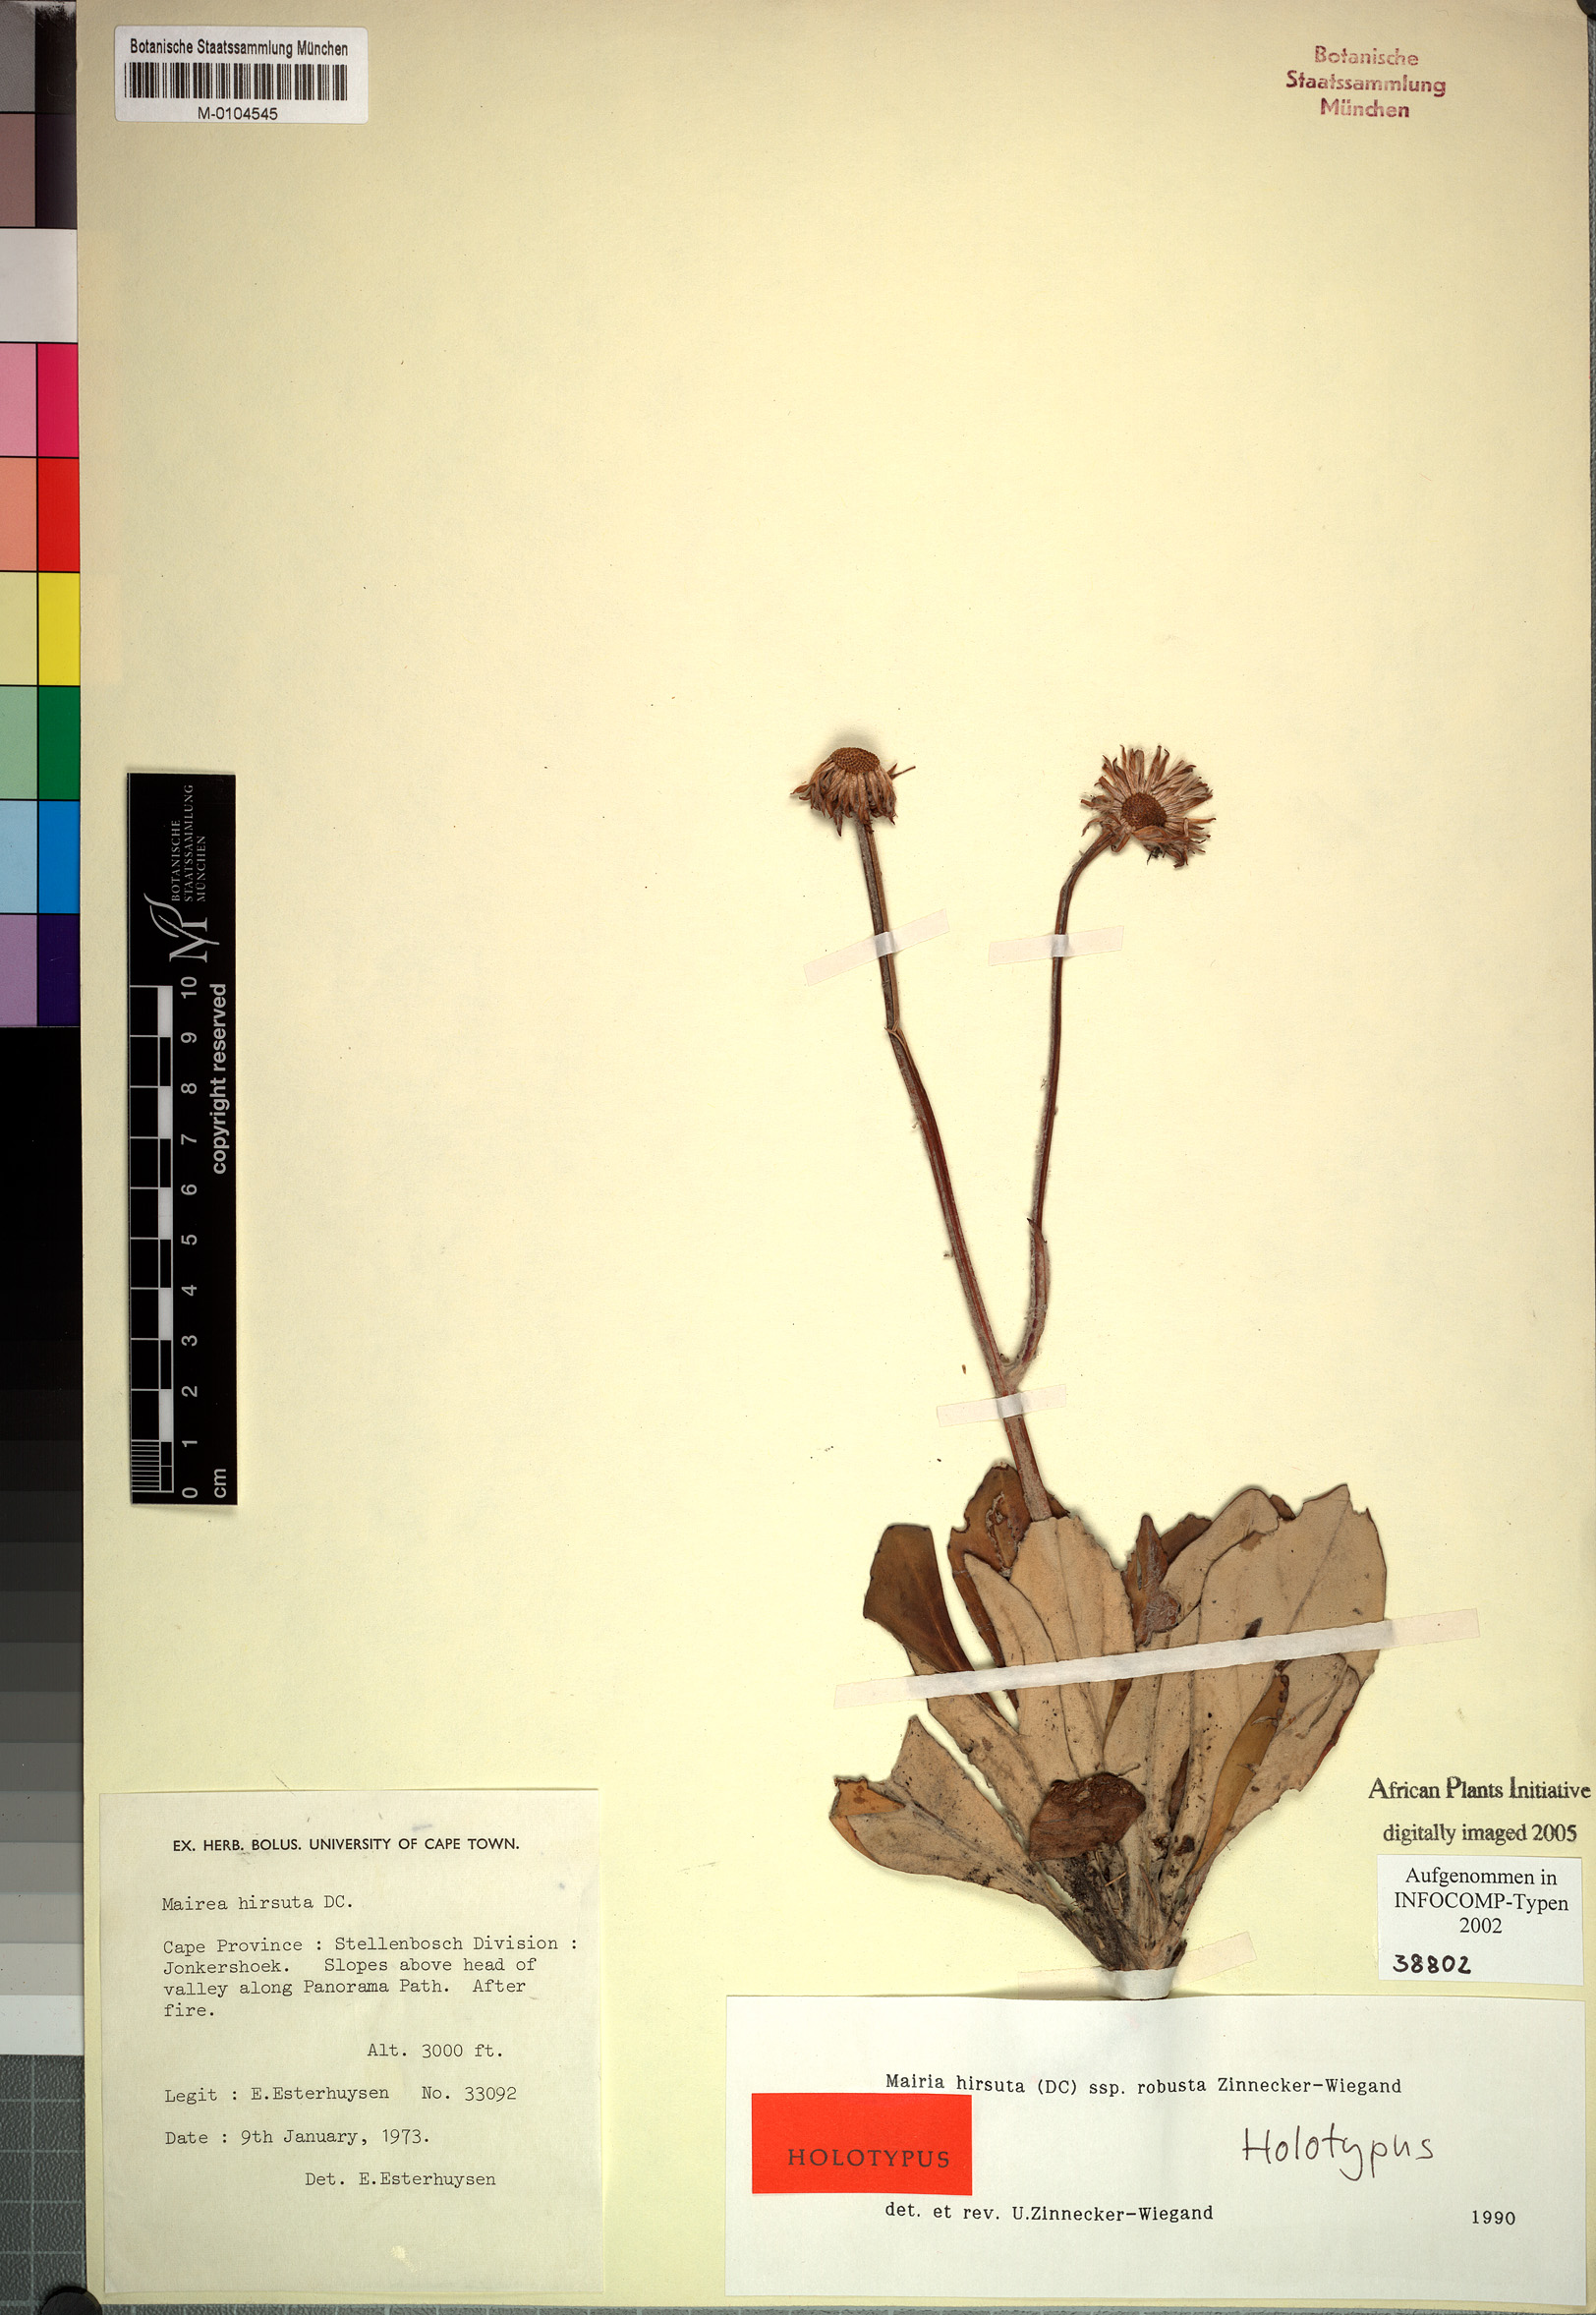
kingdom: Plantae
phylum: Tracheophyta
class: Magnoliopsida
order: Asterales
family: Asteraceae
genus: Mairia
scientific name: Mairia purpurata
